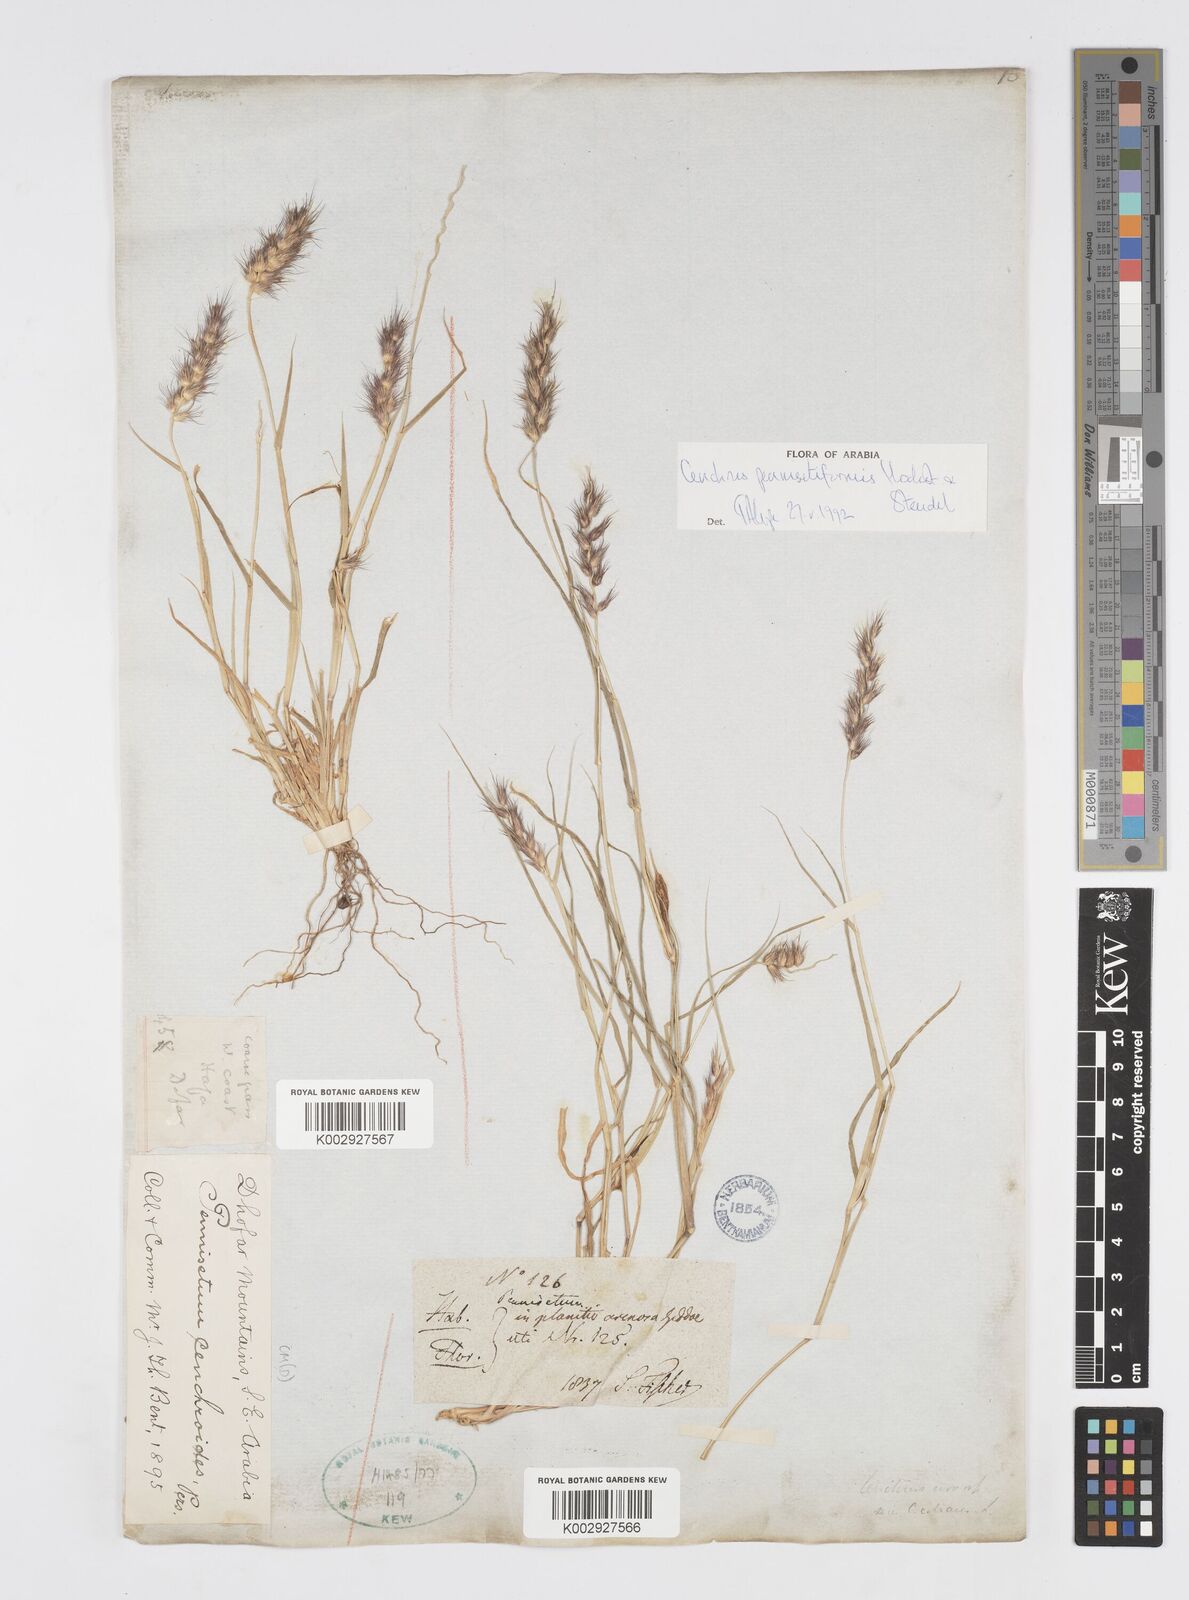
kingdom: Plantae
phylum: Tracheophyta
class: Liliopsida
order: Poales
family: Poaceae
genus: Cenchrus
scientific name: Cenchrus pennisetiformis
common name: Cloncurry
